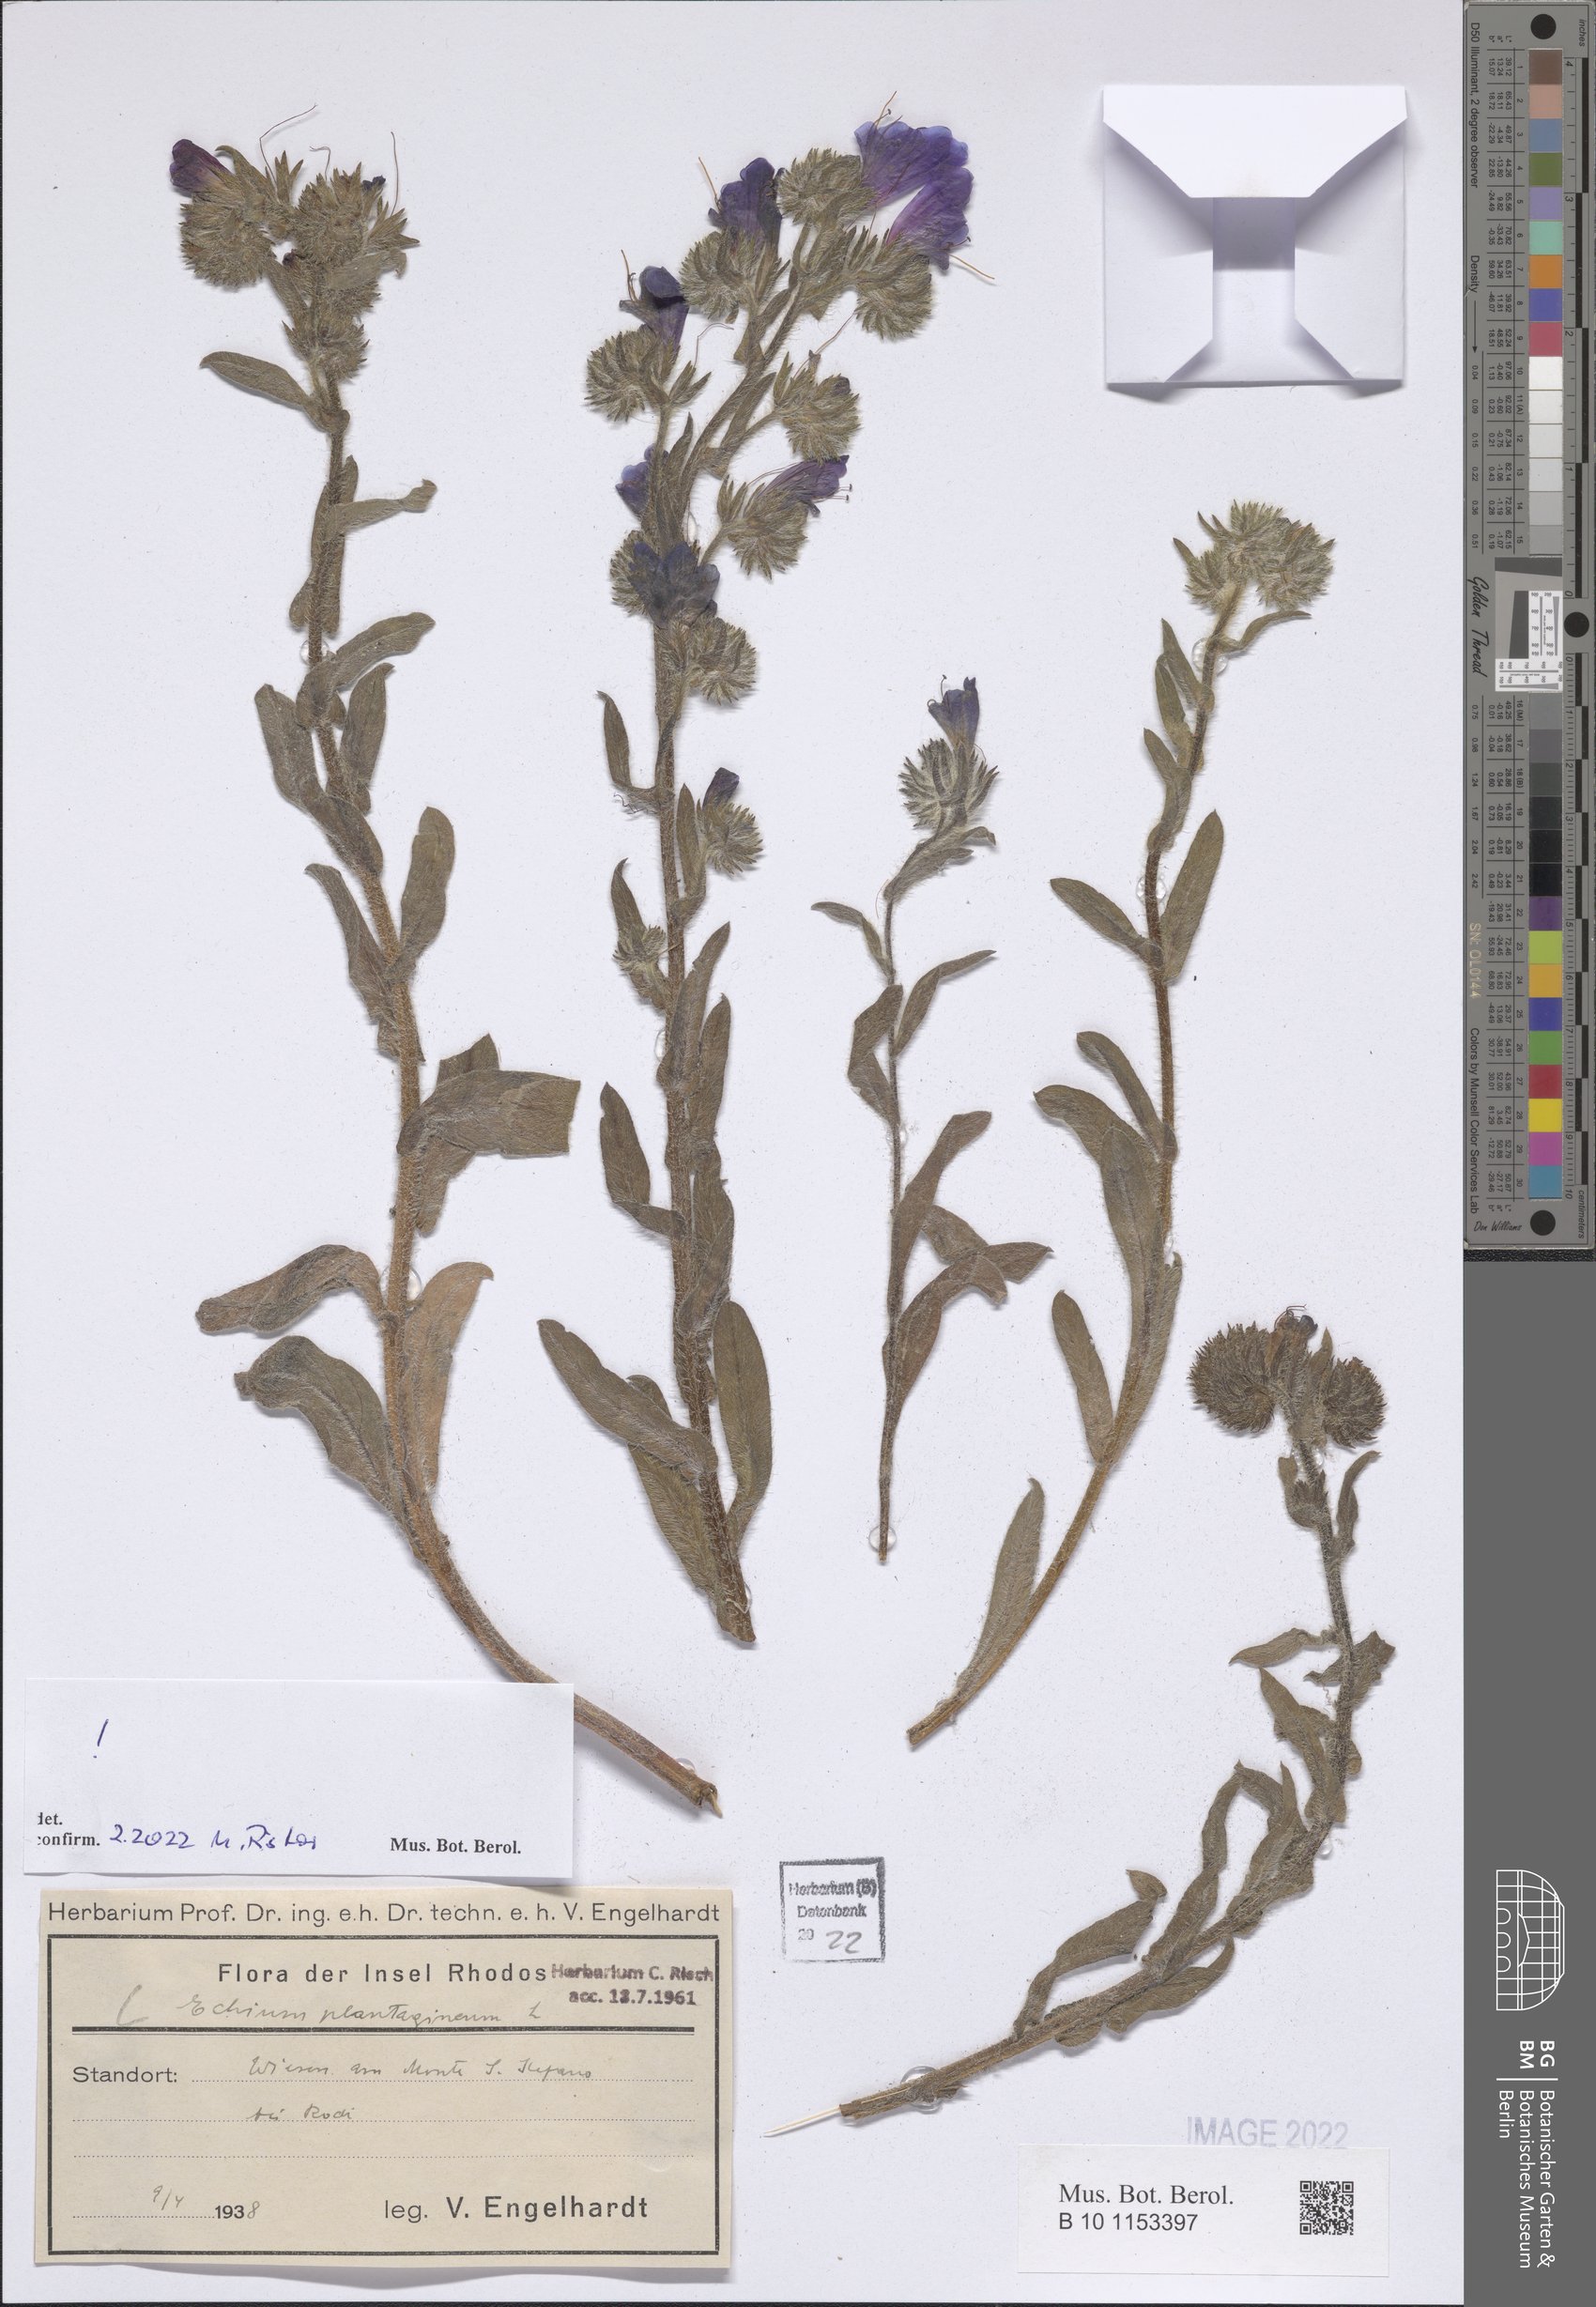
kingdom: Plantae
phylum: Tracheophyta
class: Magnoliopsida
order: Boraginales
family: Boraginaceae
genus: Echium
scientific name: Echium plantagineum
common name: Purple viper's-bugloss
